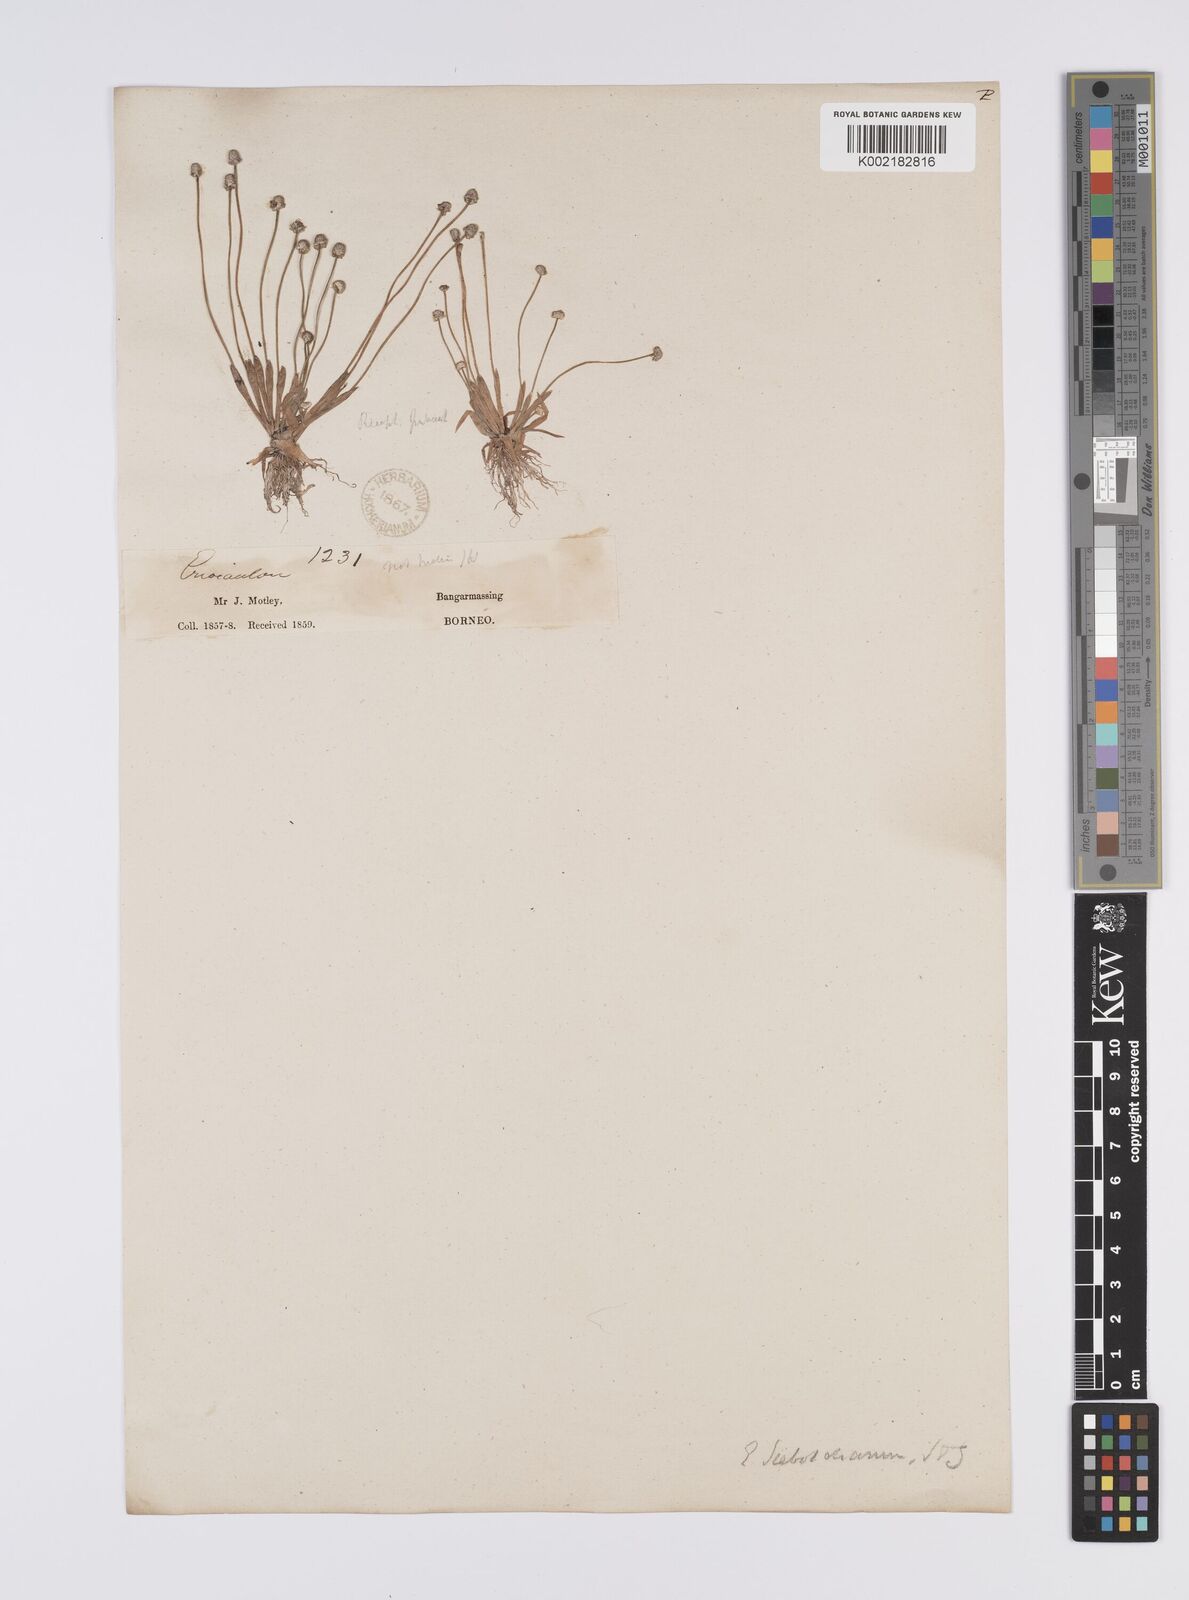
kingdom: Plantae
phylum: Tracheophyta
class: Liliopsida
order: Poales
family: Eriocaulaceae
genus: Eriocaulon
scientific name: Eriocaulon cinereum
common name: Ashy pipewort
